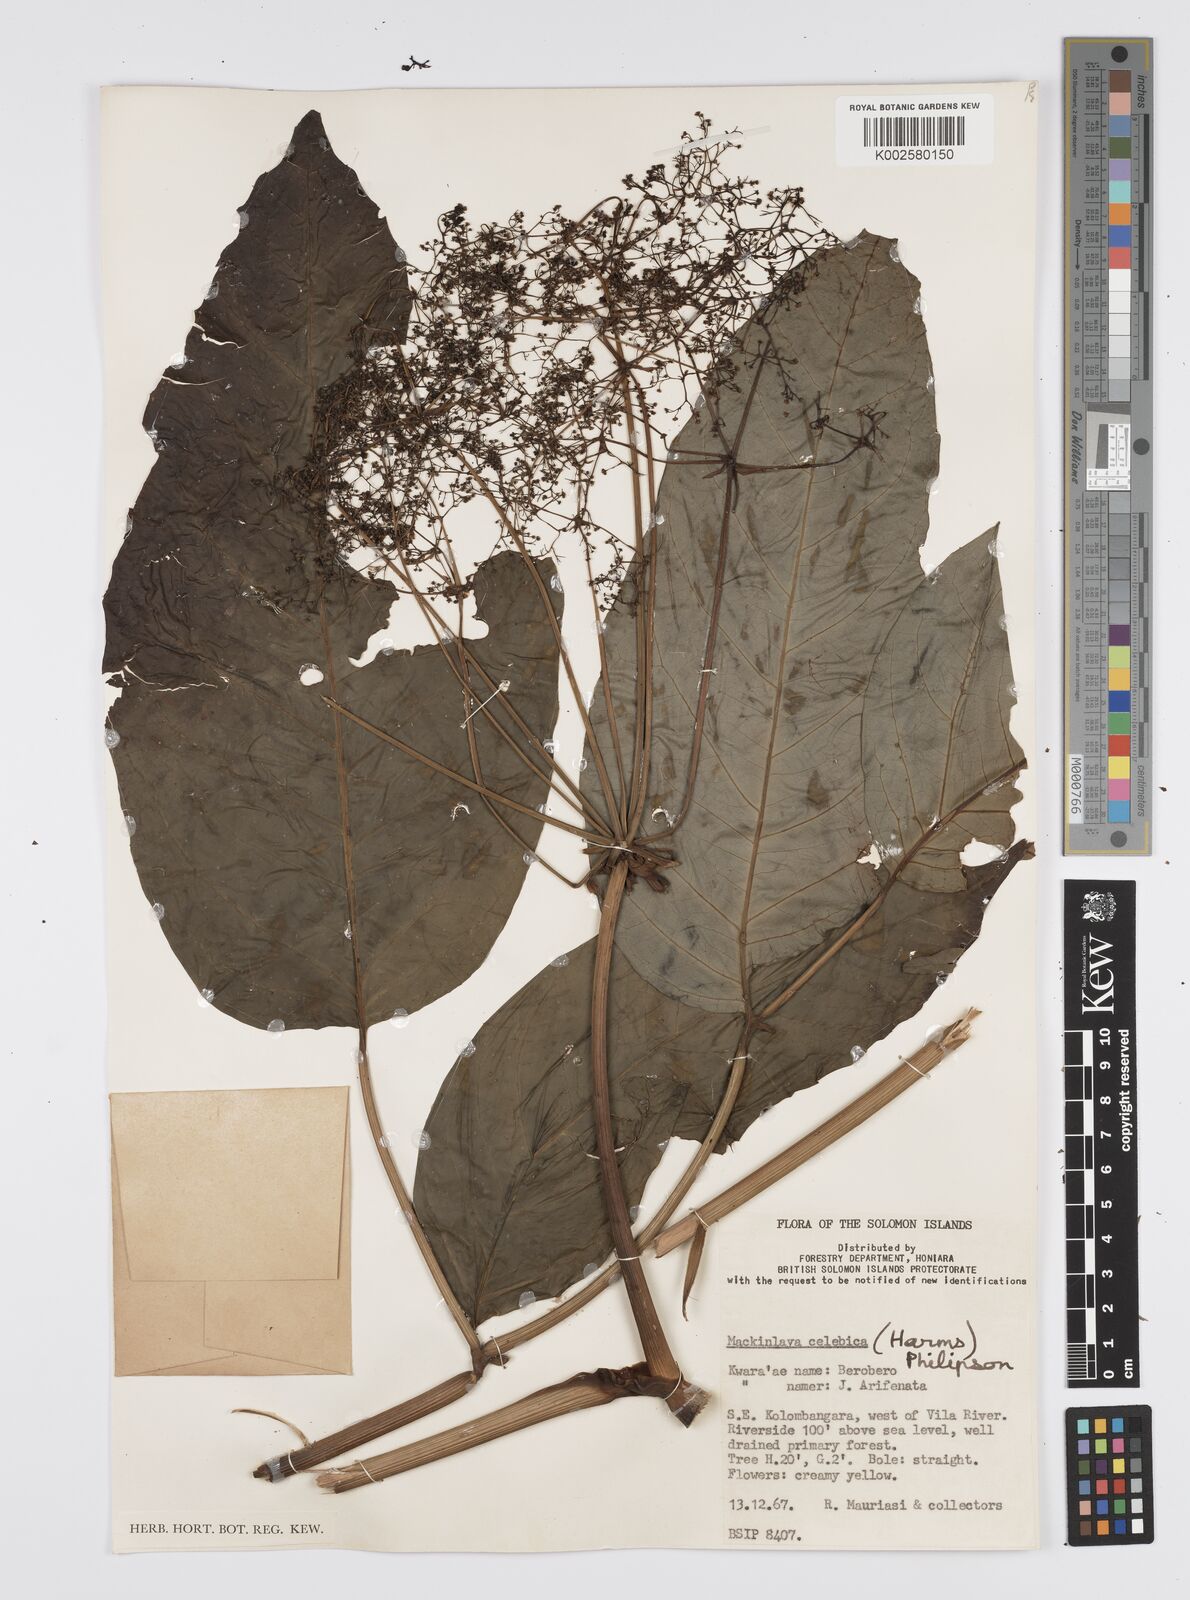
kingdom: Plantae
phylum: Tracheophyta
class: Magnoliopsida
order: Apiales
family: Apiaceae
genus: Mackinlaya
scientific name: Mackinlaya celebica
